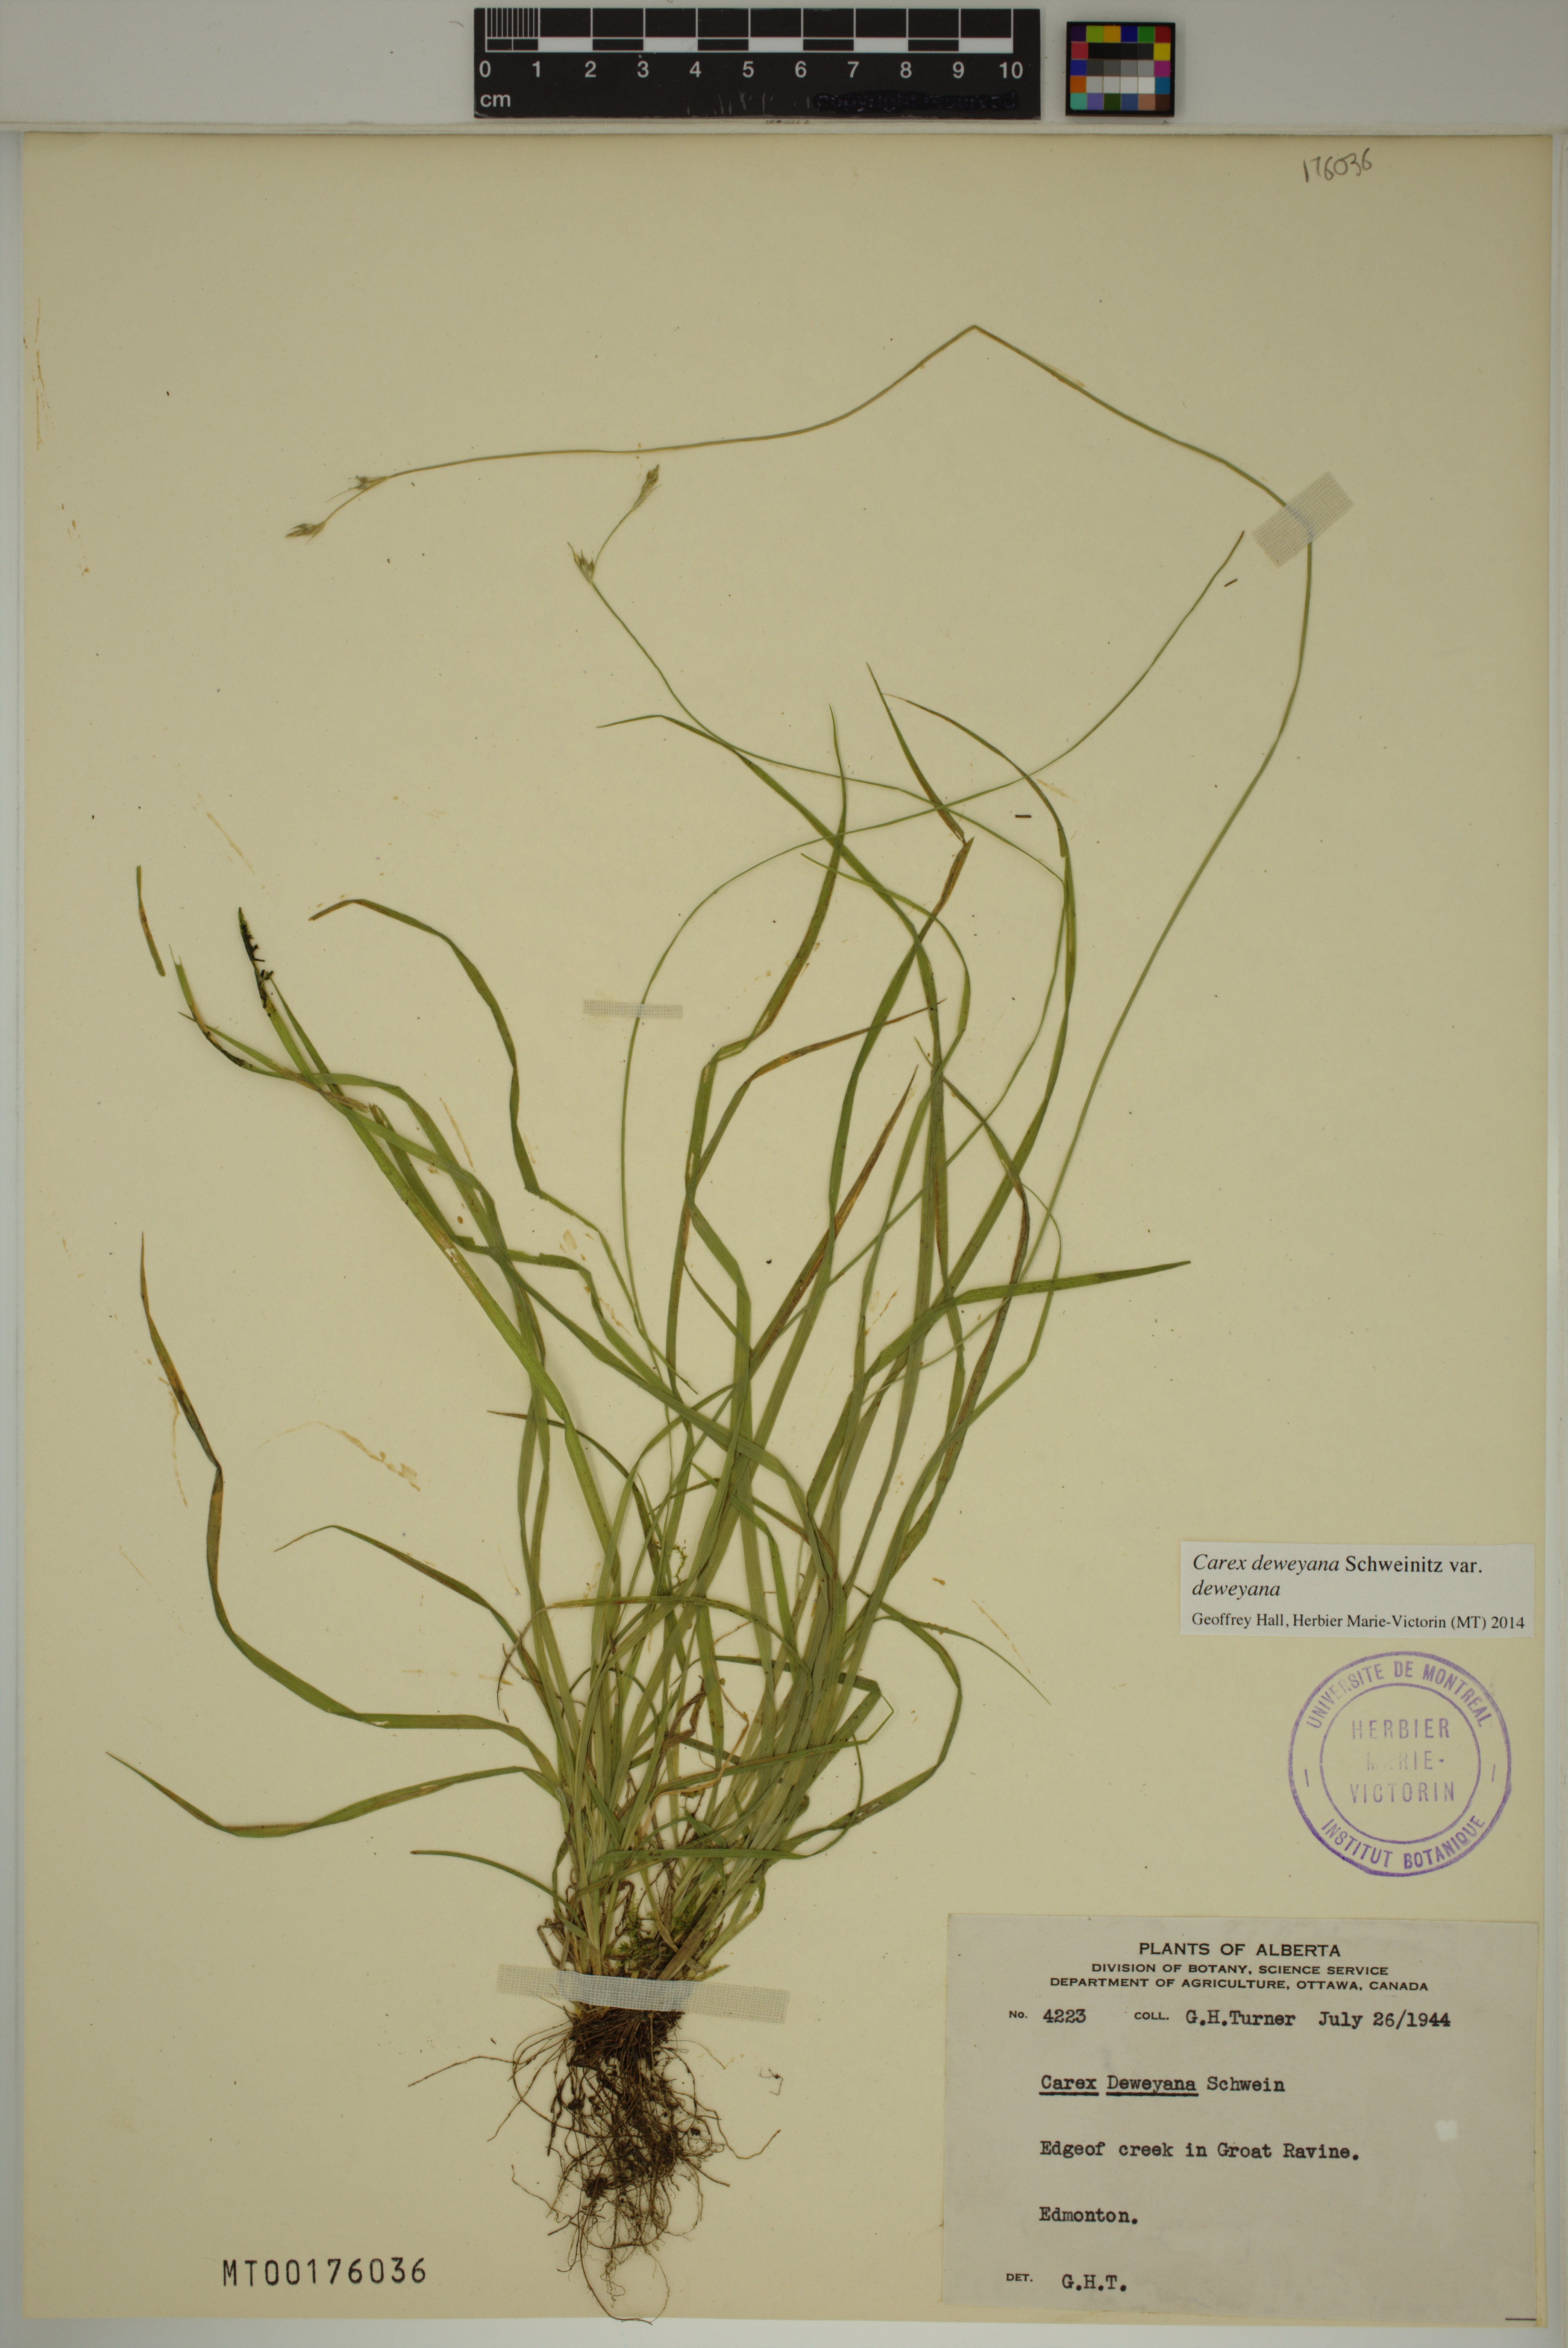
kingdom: Plantae
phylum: Tracheophyta
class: Liliopsida
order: Poales
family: Cyperaceae
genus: Carex
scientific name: Carex deweyana
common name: Dewey's sedge
